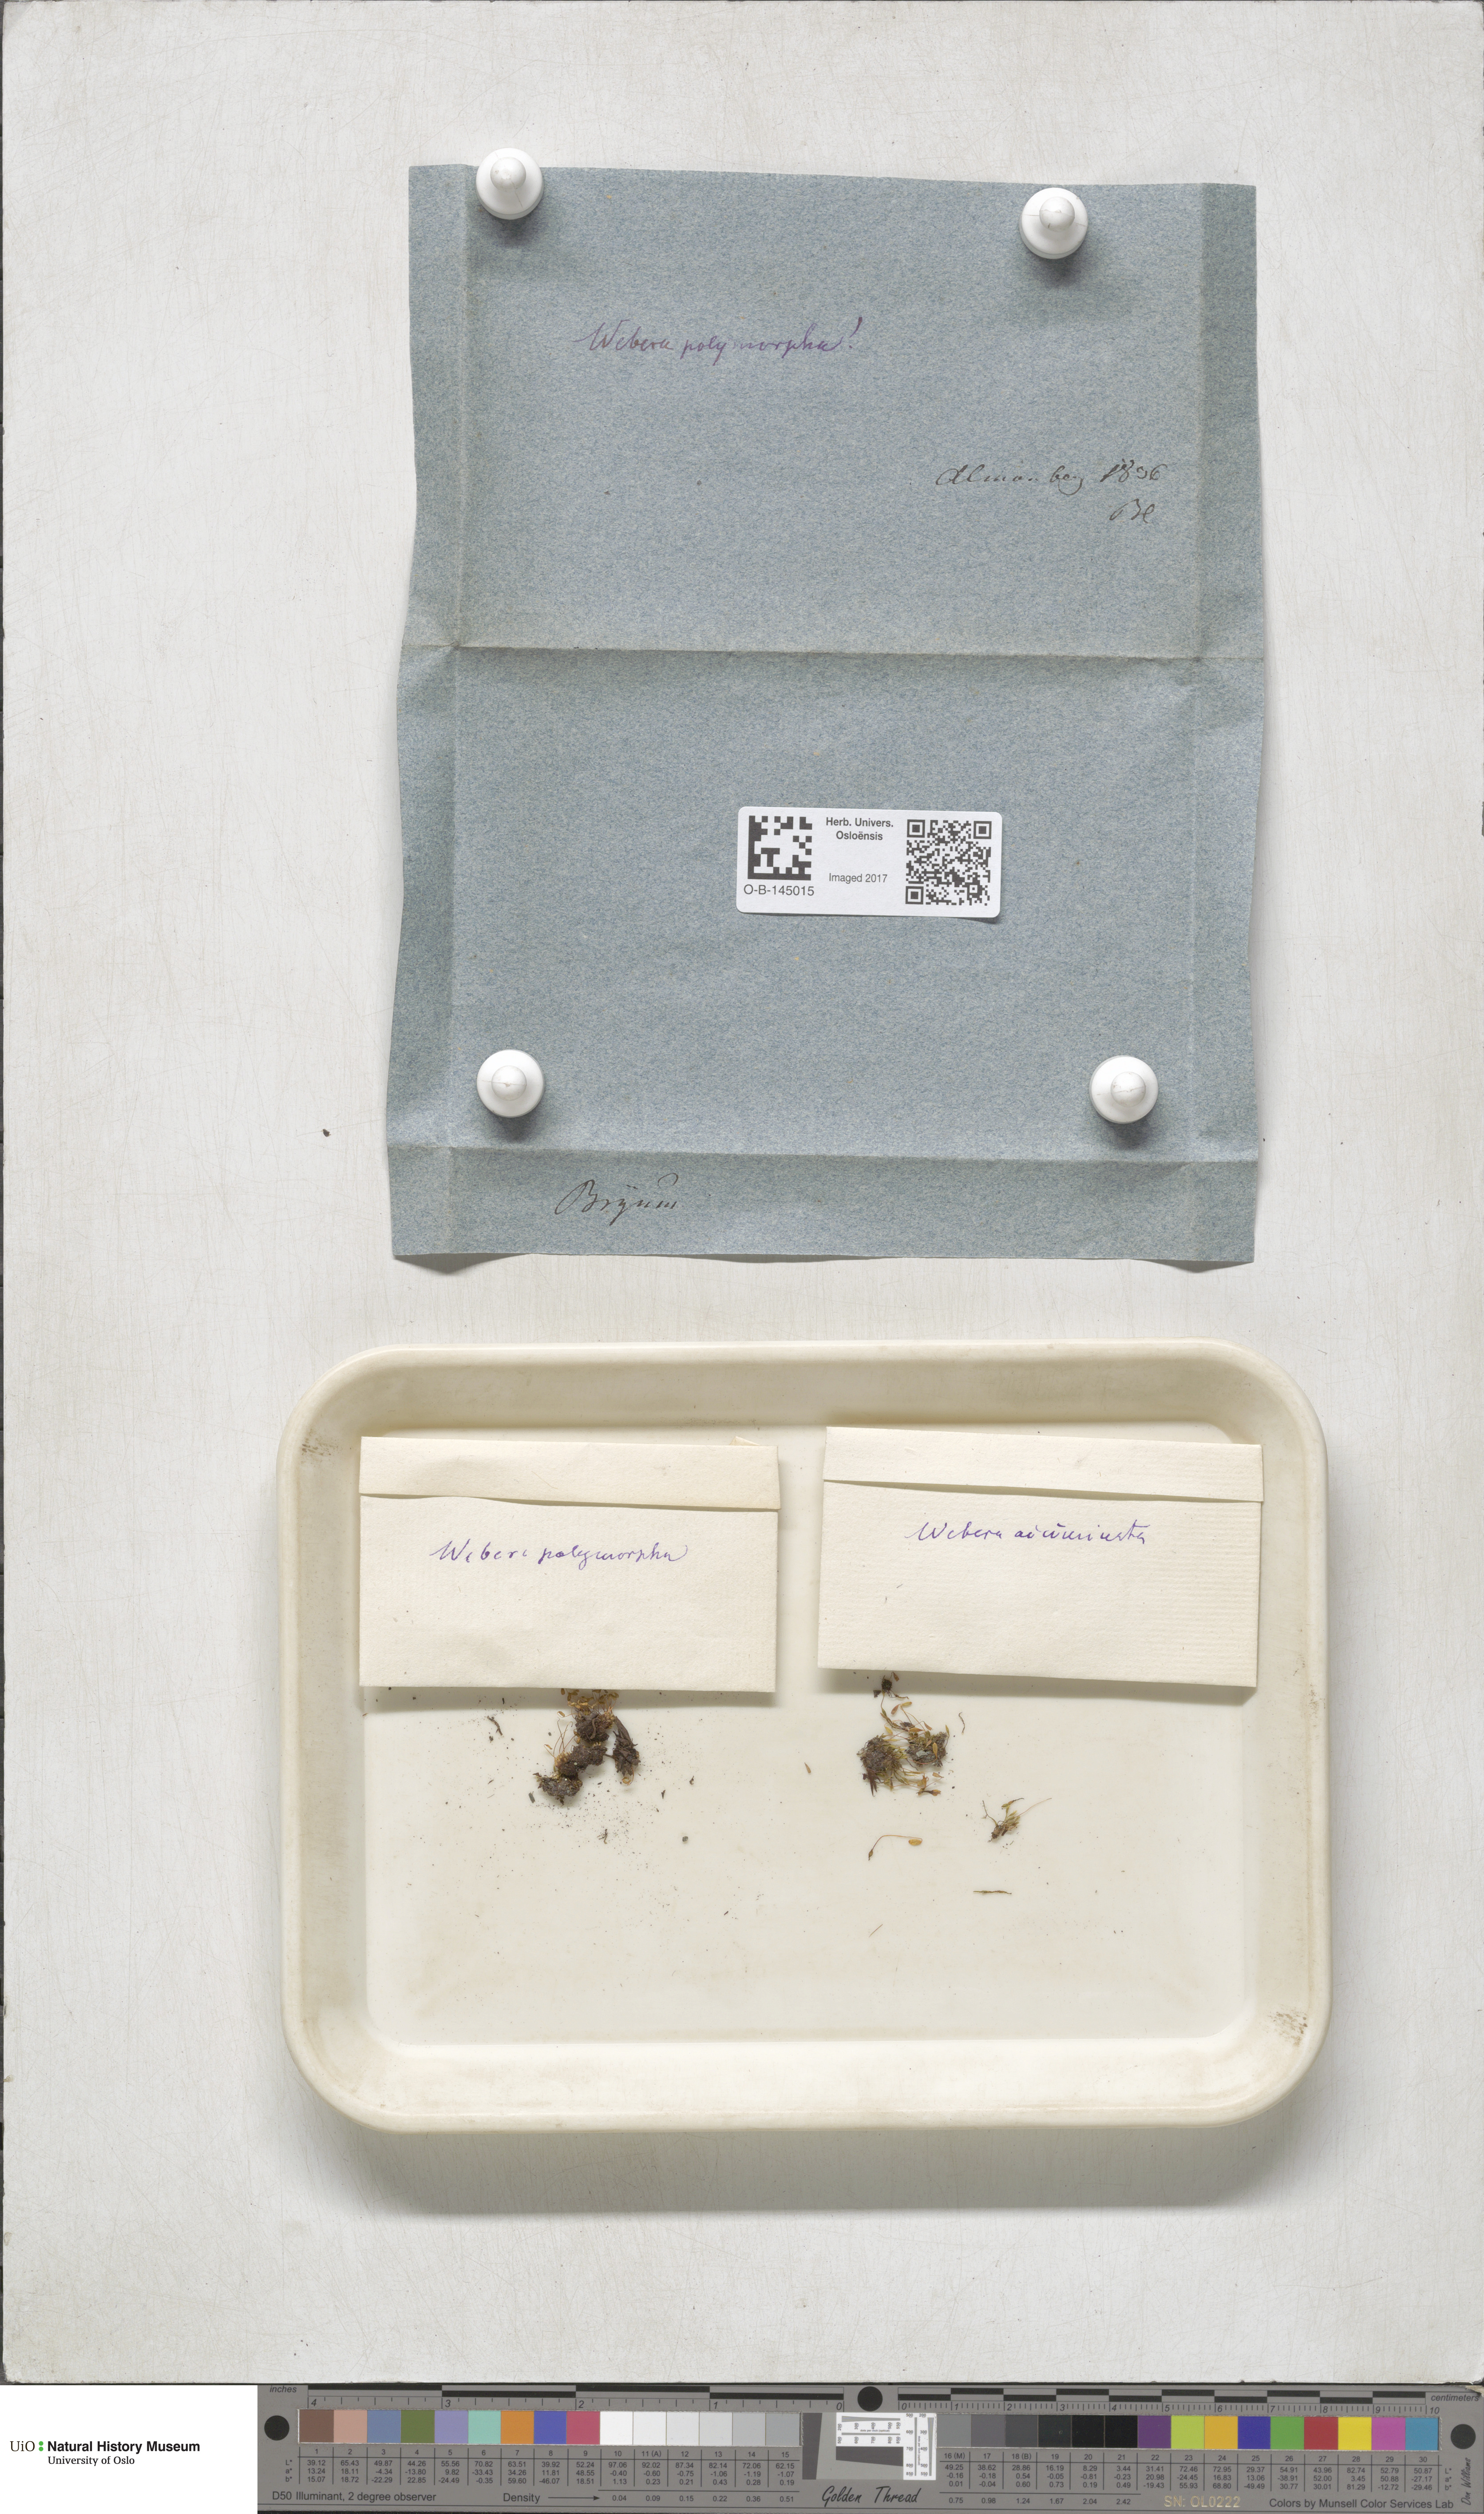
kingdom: Plantae
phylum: Bryophyta
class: Bryopsida
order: Bryales
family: Mniaceae
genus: Pohlia
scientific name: Pohlia elongata
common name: Long-fruited thread-moss
